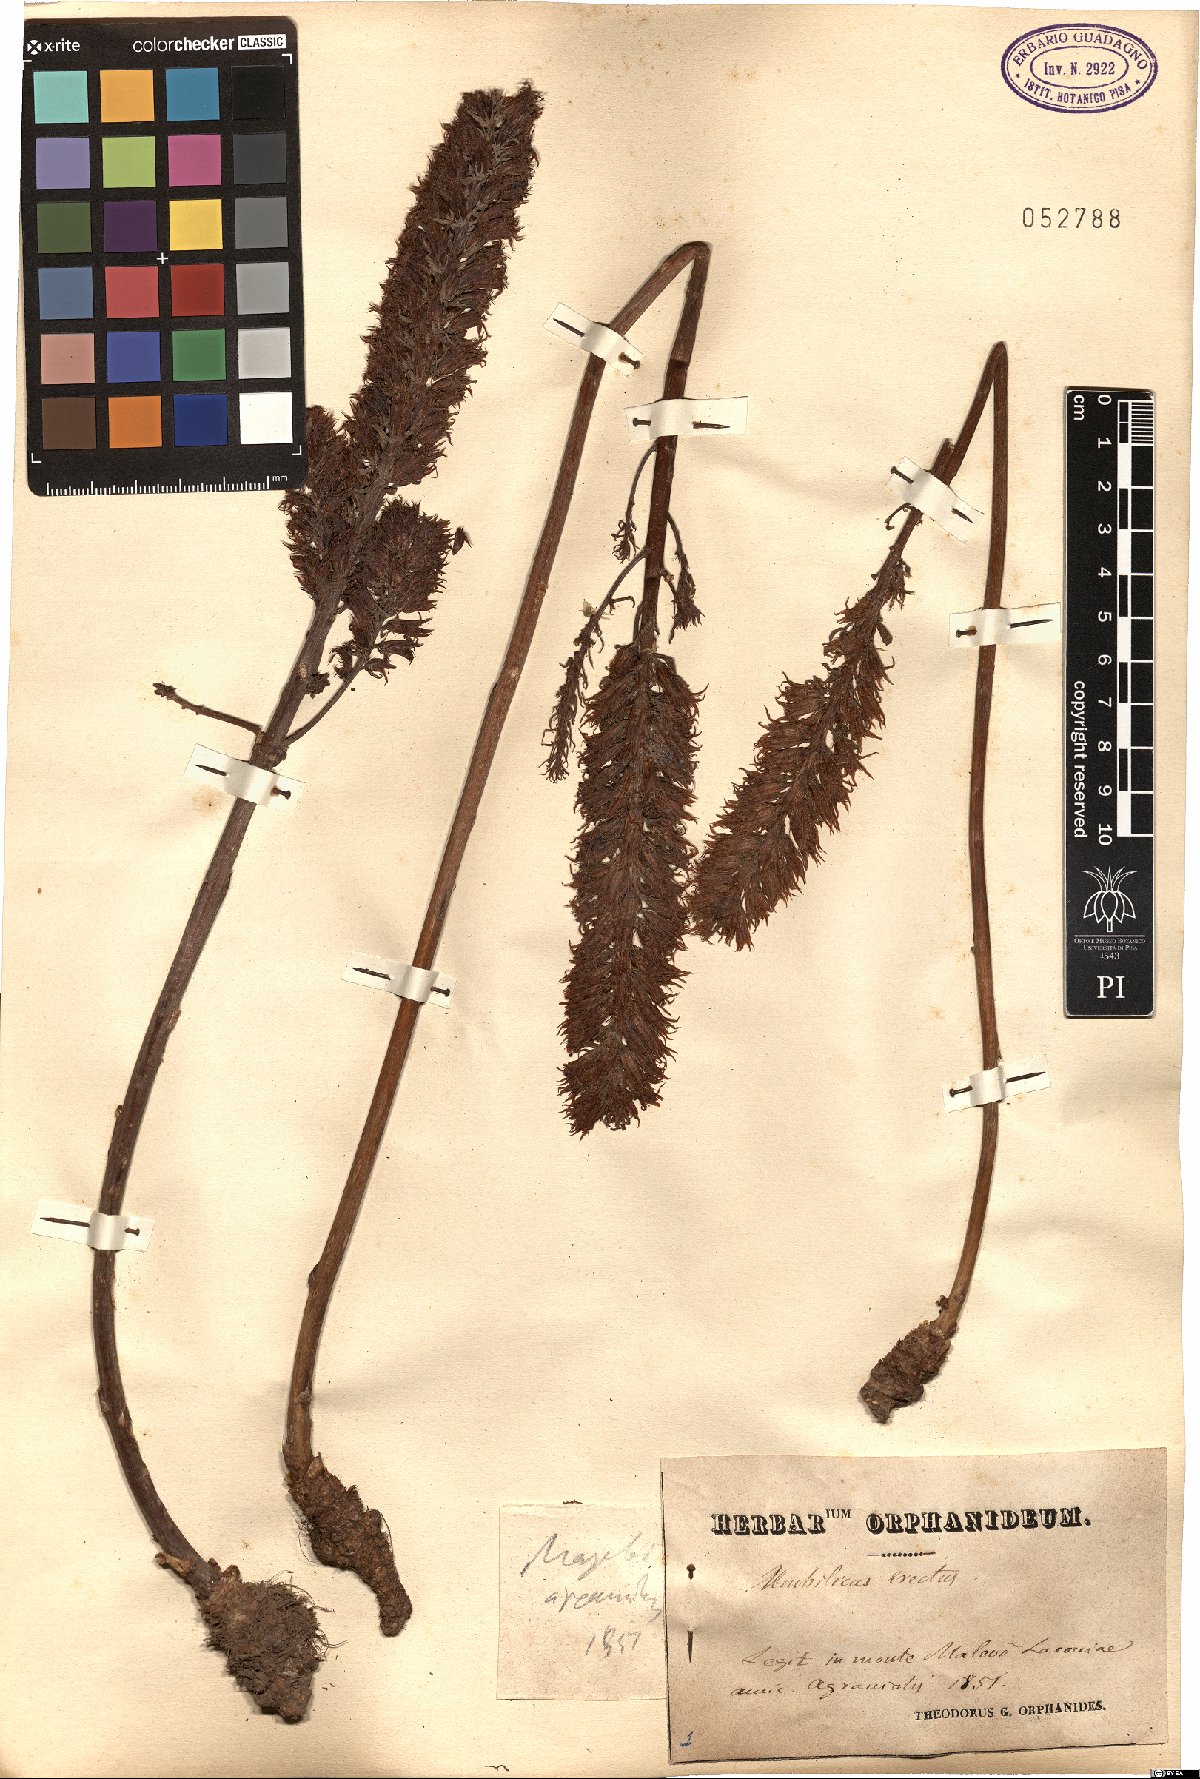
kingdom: Plantae
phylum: Tracheophyta
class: Magnoliopsida
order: Saxifragales
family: Crassulaceae
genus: Umbilicus
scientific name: Umbilicus luteus
